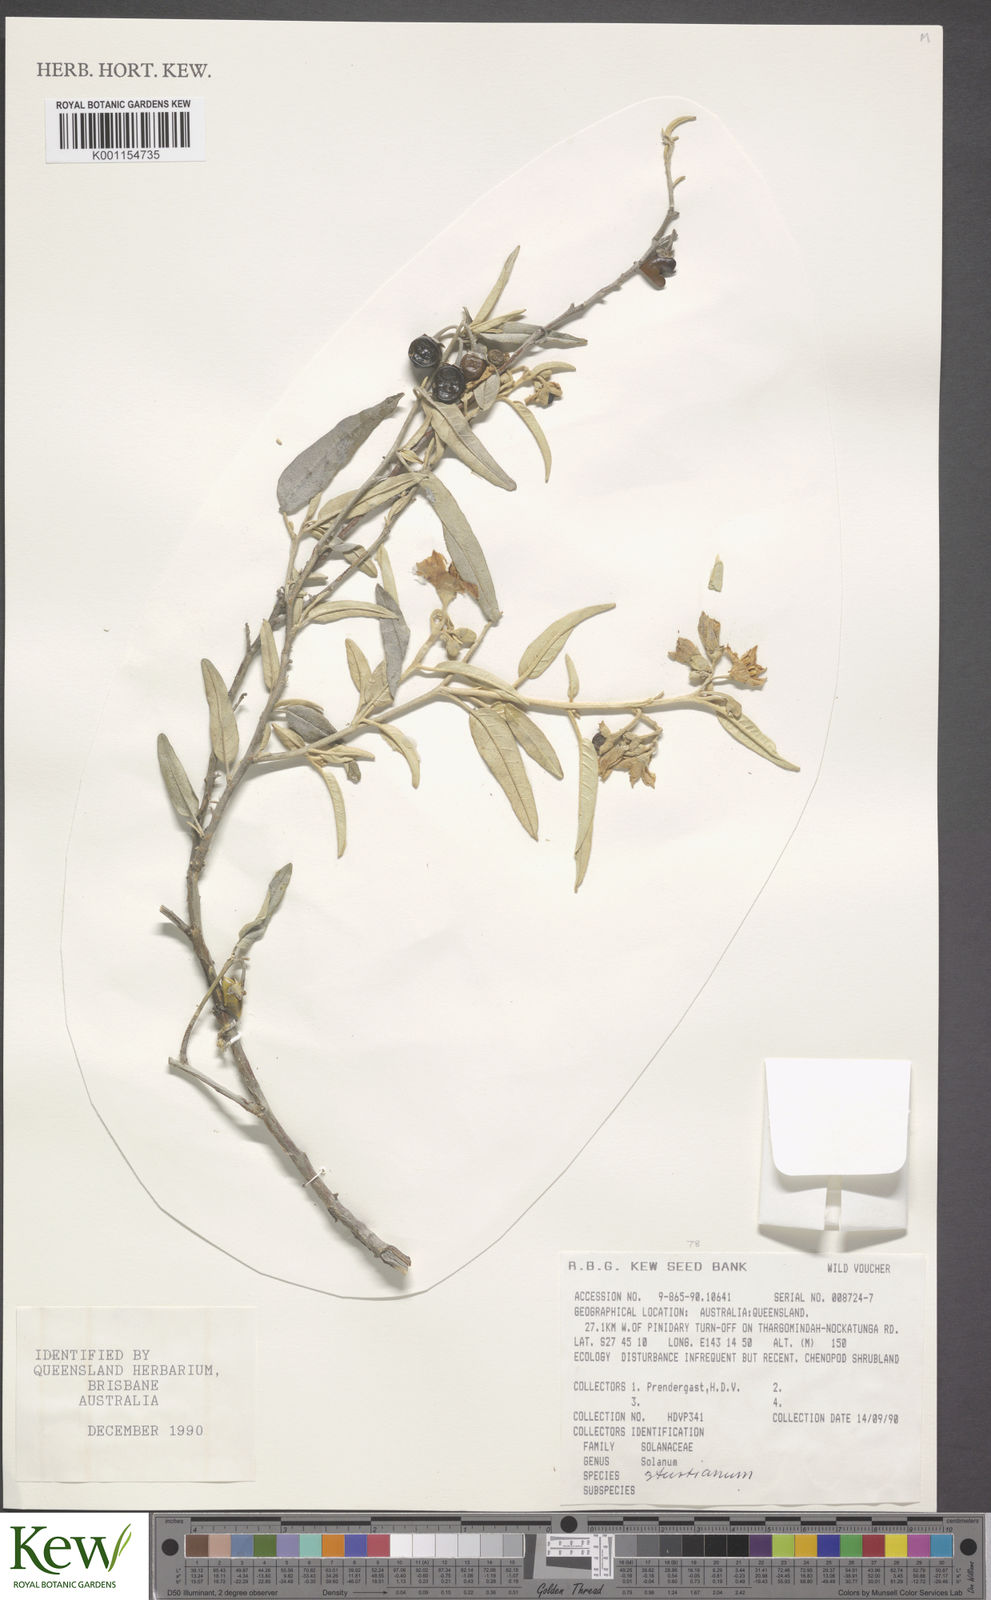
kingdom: Plantae
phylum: Tracheophyta
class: Magnoliopsida
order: Solanales
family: Solanaceae
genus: Solanum
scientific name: Solanum sturtianum
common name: Thargomindah nightshade
